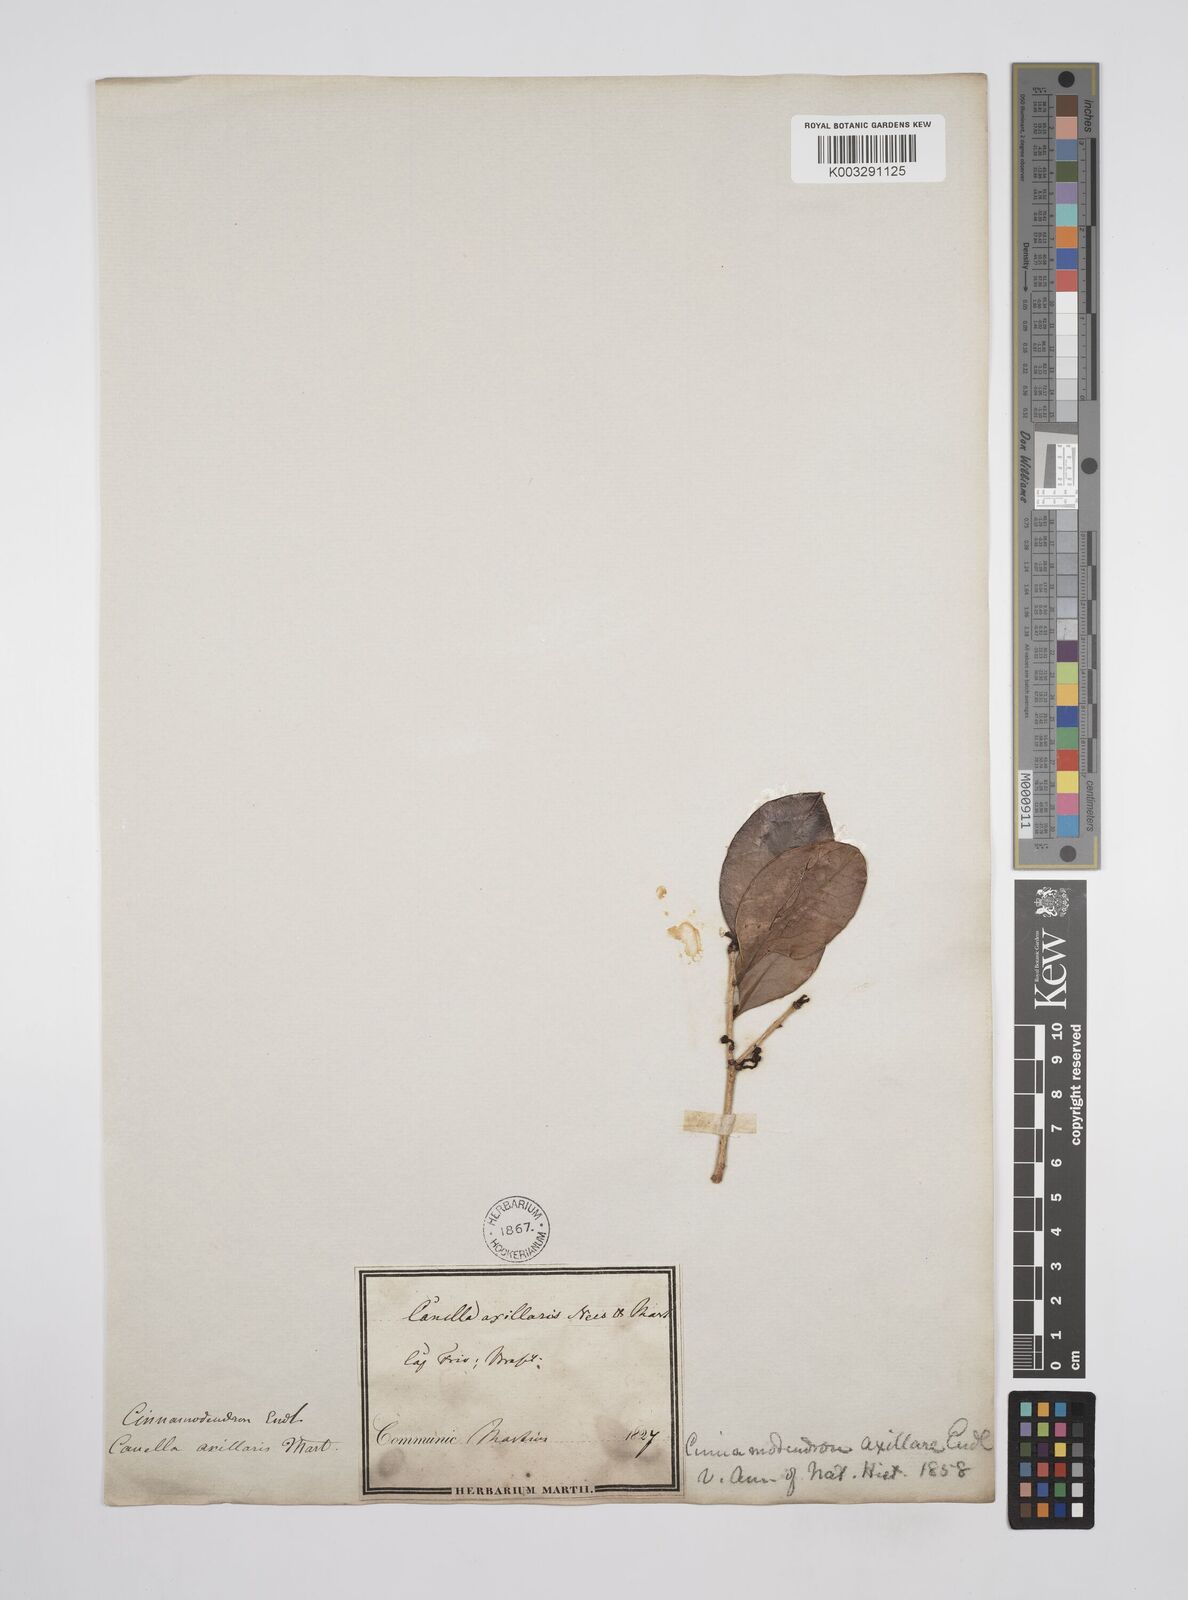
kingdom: Plantae
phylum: Tracheophyta
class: Magnoliopsida
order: Canellales
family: Canellaceae
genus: Cinnamodendron
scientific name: Cinnamodendron axillare
